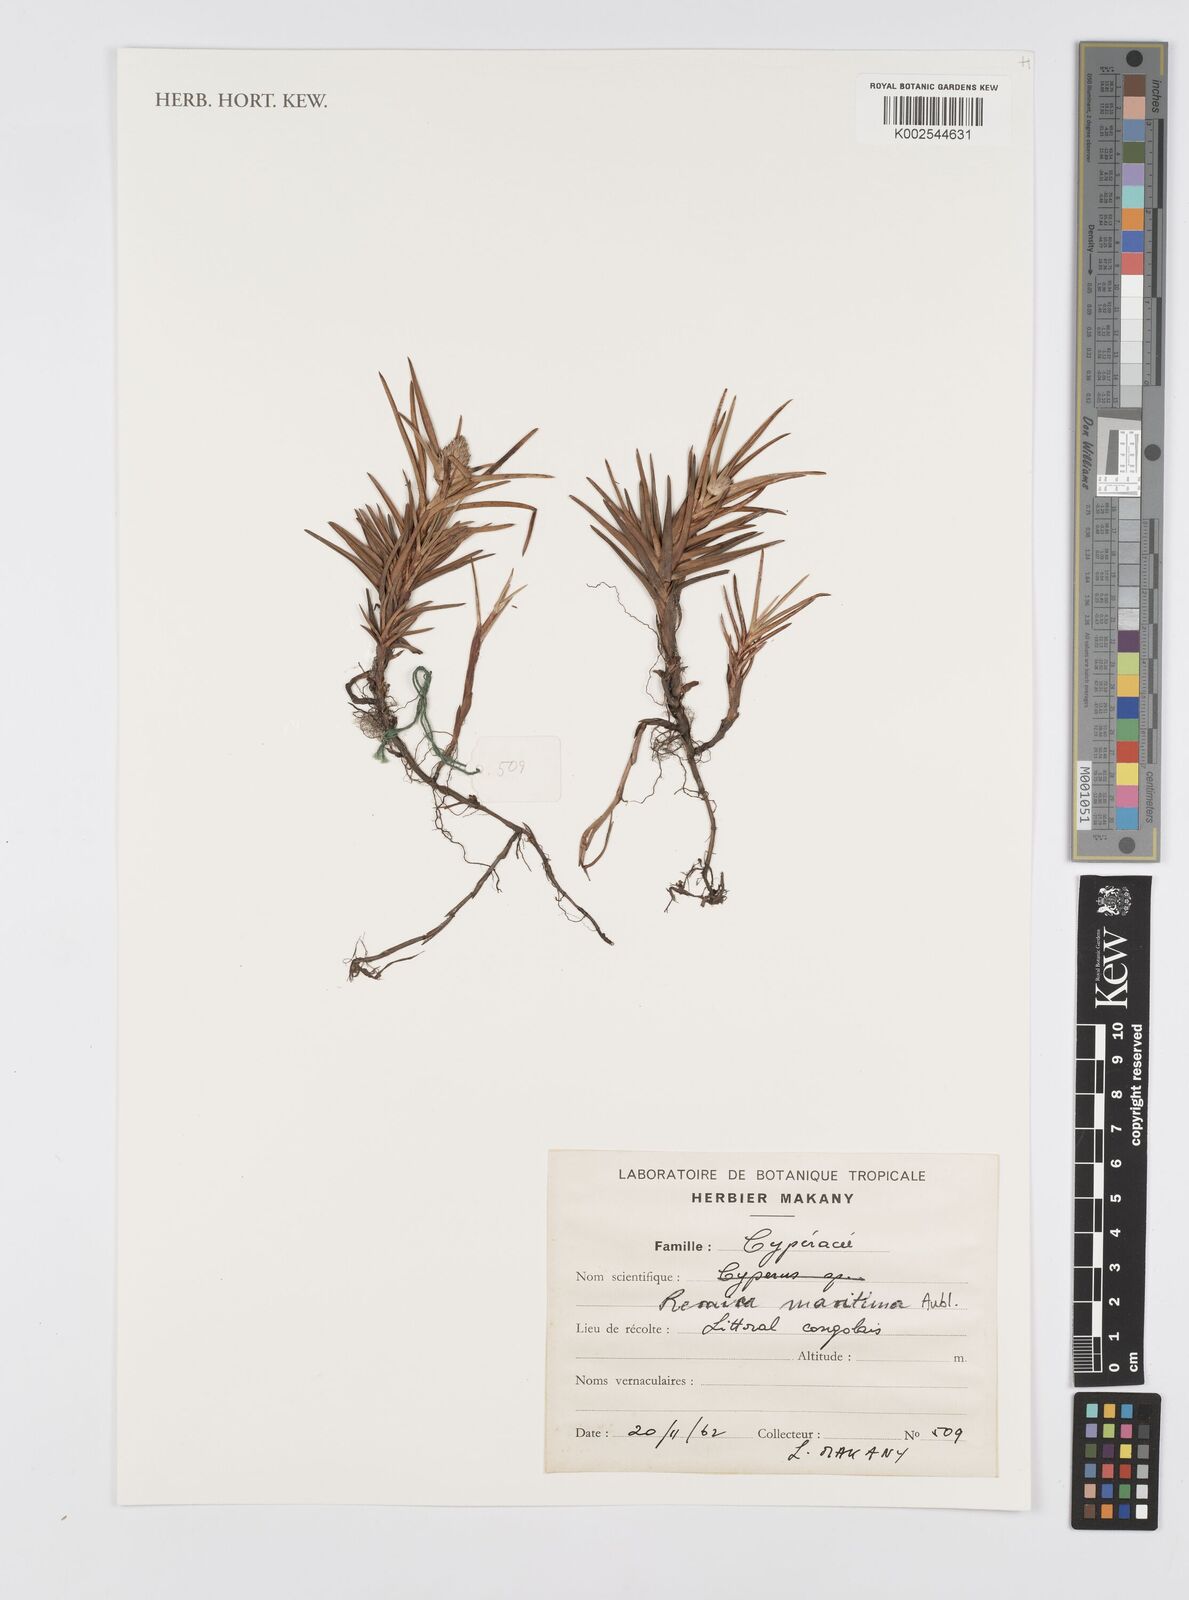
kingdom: Plantae
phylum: Tracheophyta
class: Liliopsida
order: Poales
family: Cyperaceae
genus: Cyperus
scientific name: Cyperus
